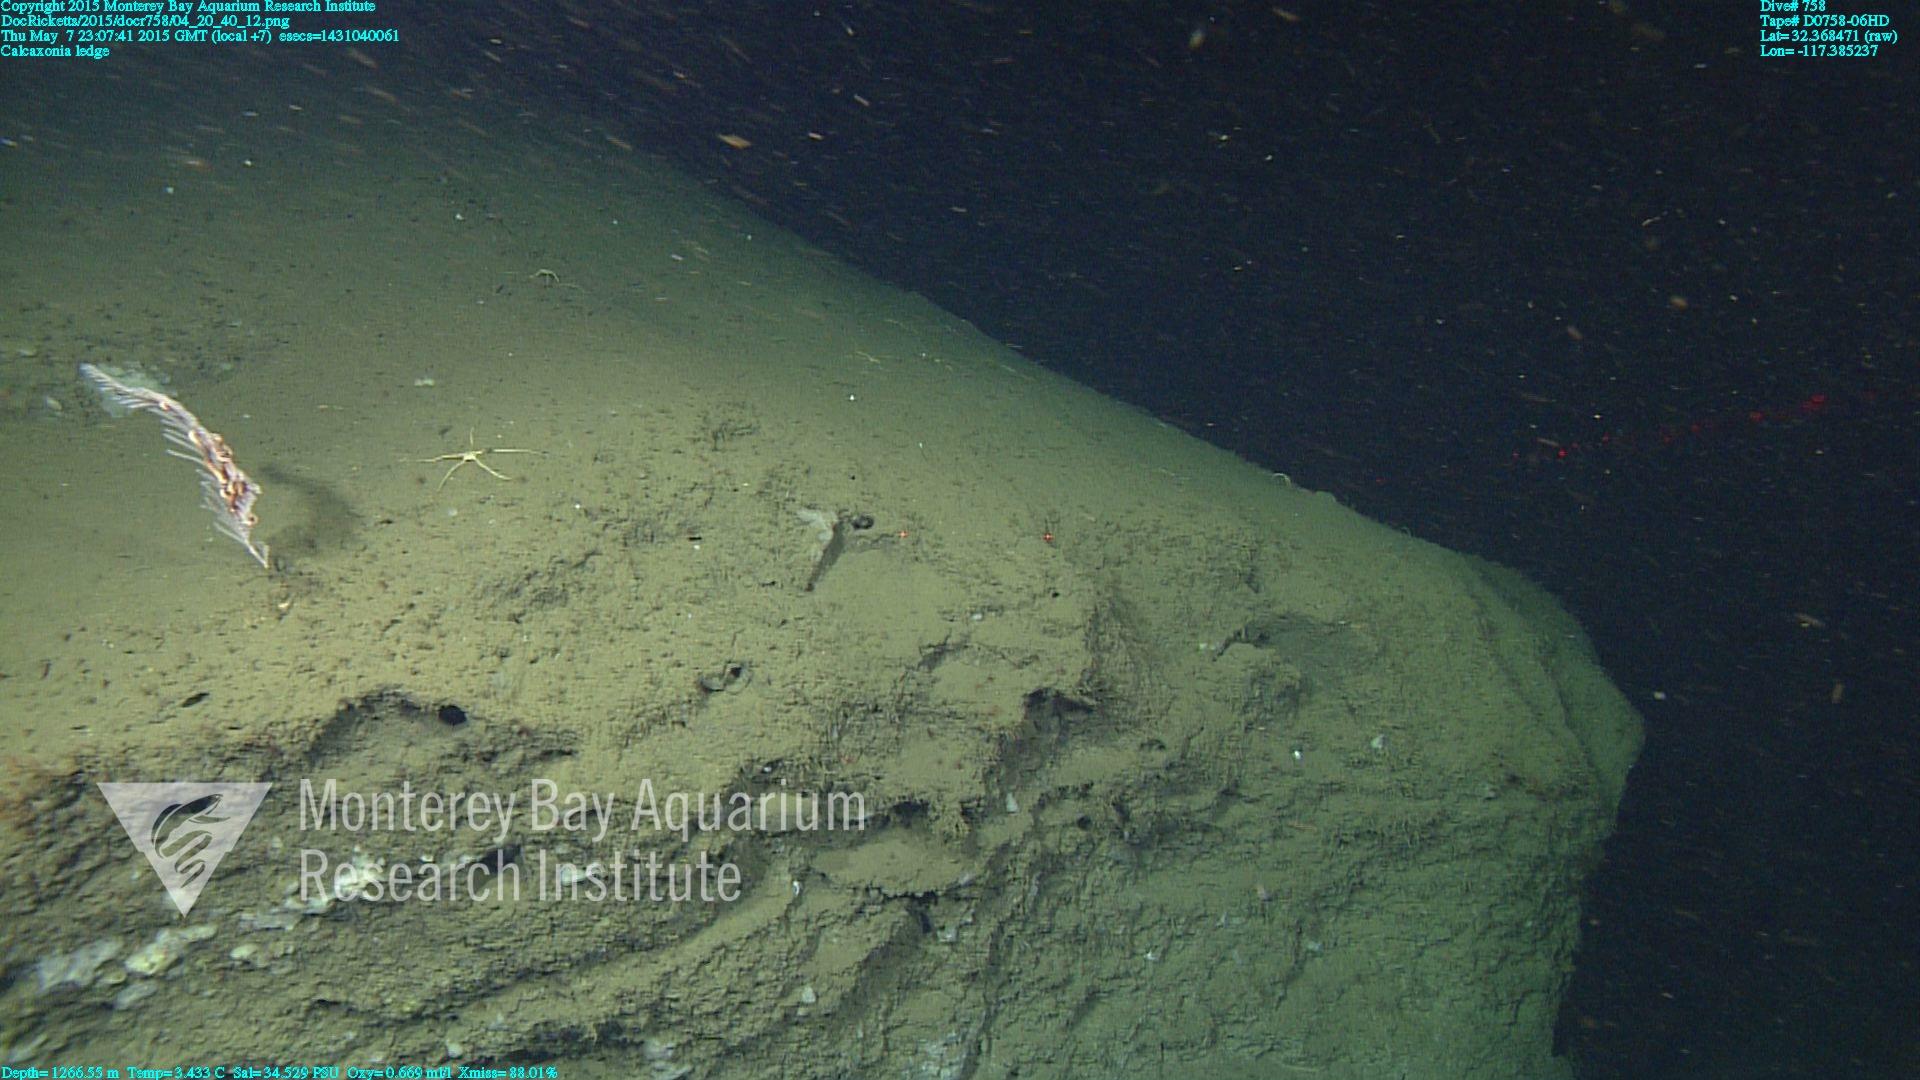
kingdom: Animalia
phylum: Cnidaria
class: Anthozoa
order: Scleralcyonacea
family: Primnoidae
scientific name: Primnoidae
